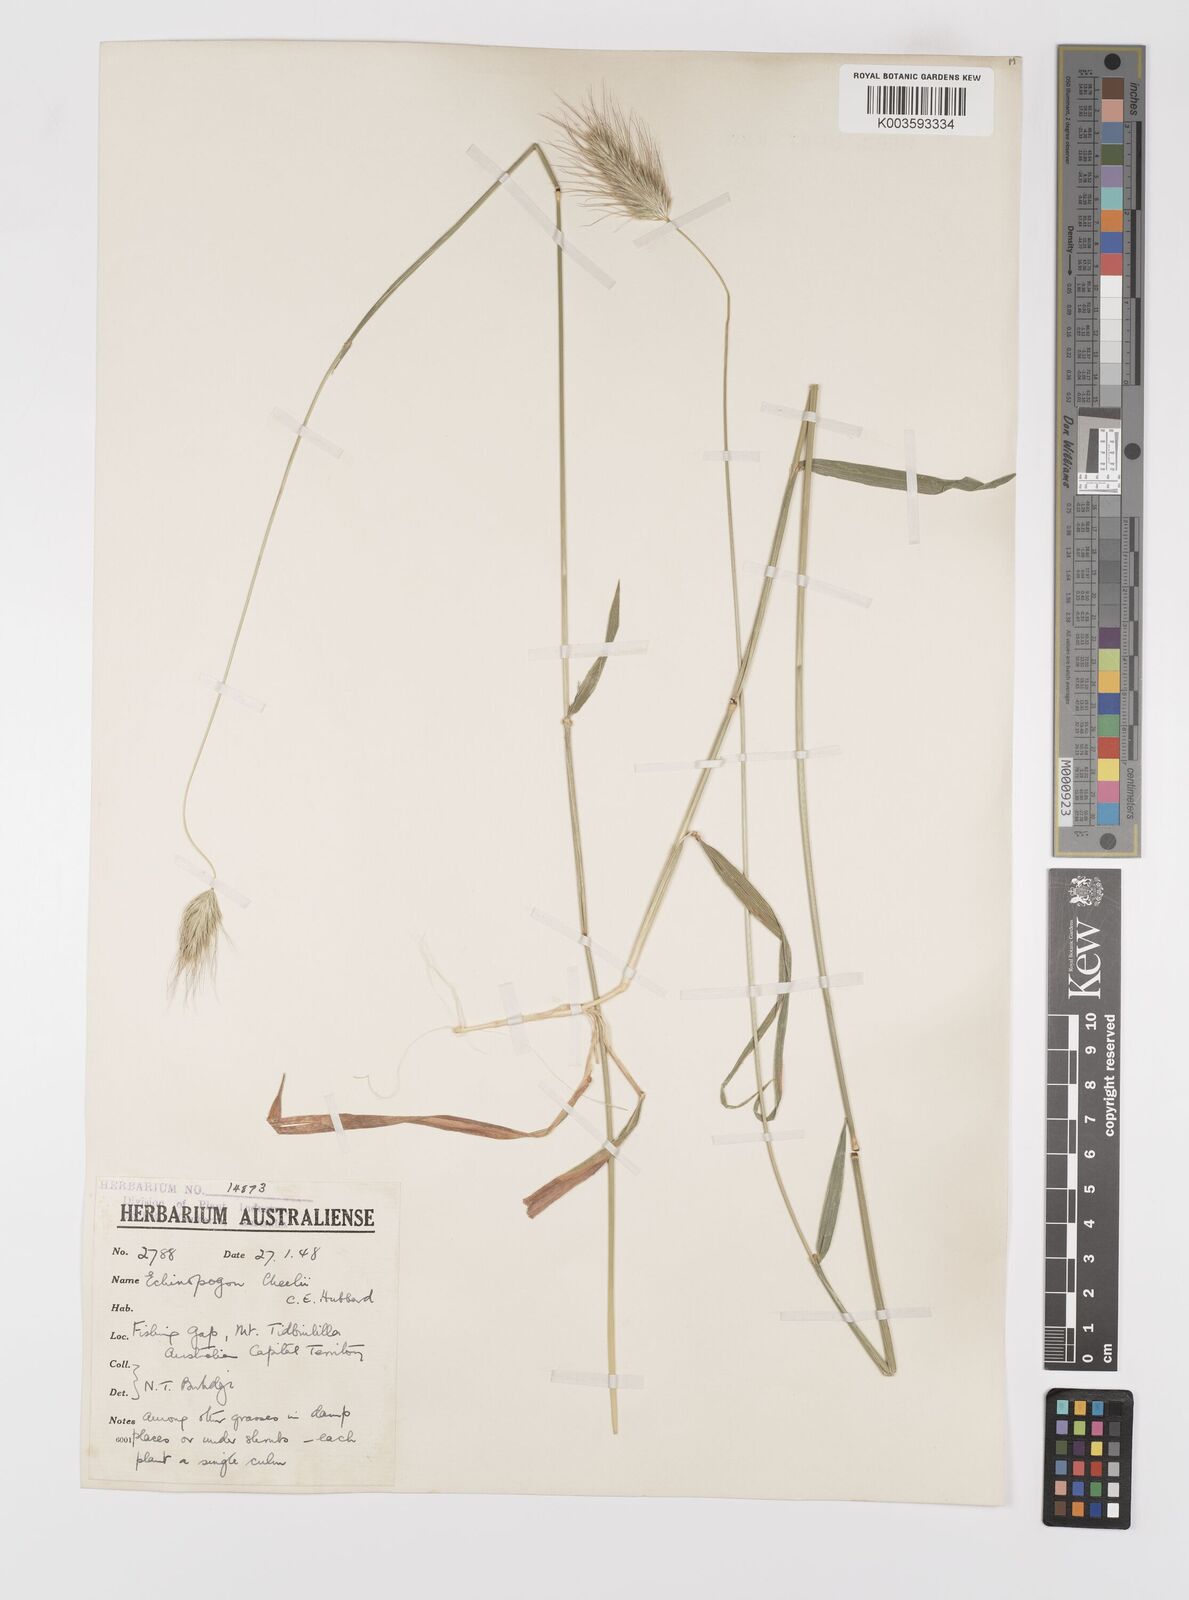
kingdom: Plantae
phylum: Tracheophyta
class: Liliopsida
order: Poales
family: Poaceae
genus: Echinopogon
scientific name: Echinopogon cheelii
